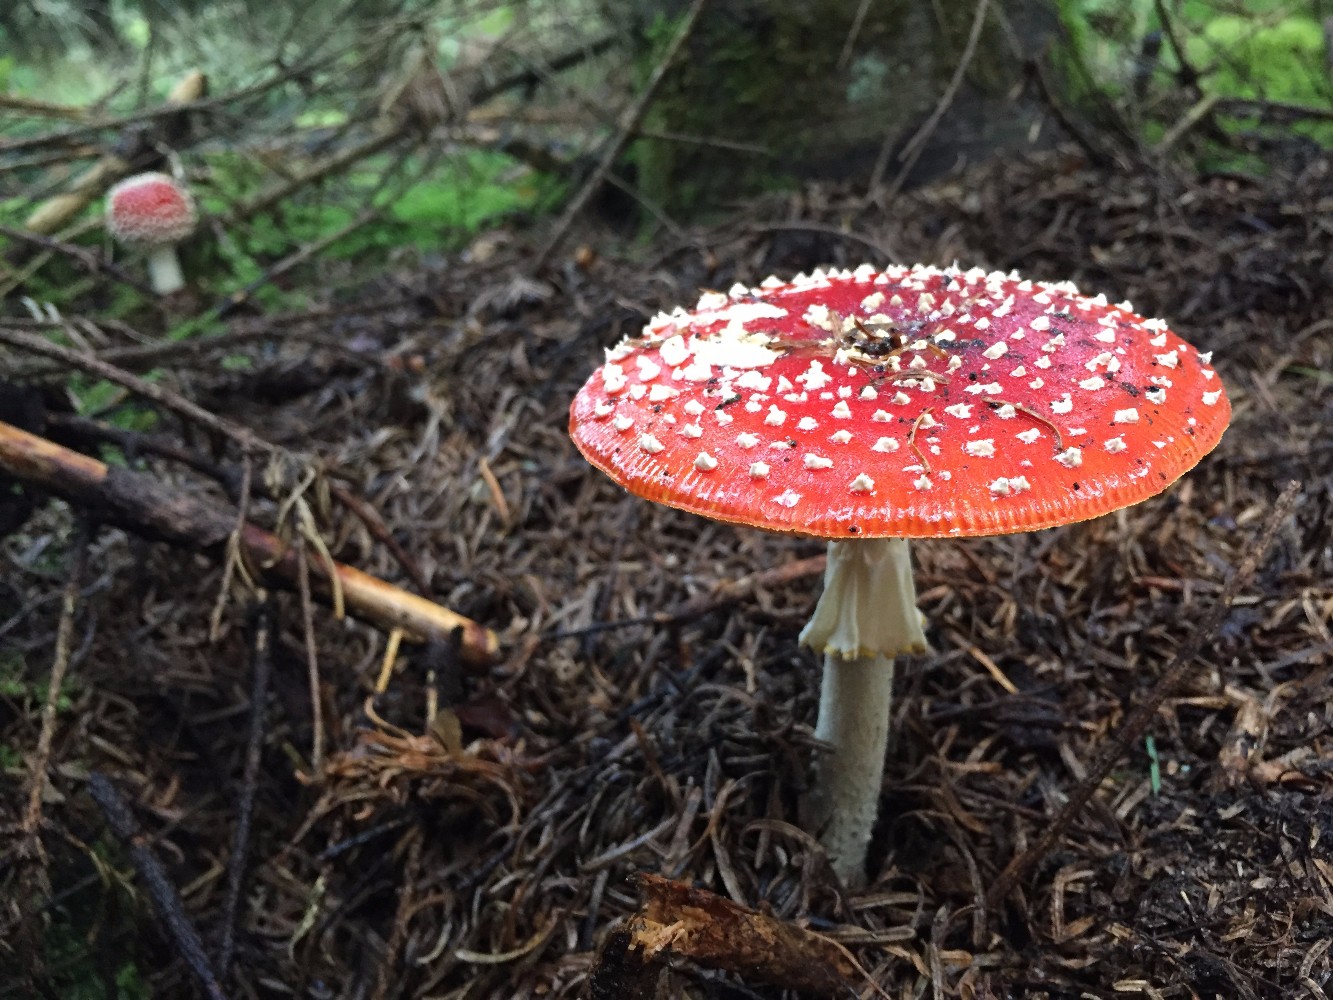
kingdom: Fungi
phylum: Basidiomycota
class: Agaricomycetes
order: Agaricales
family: Amanitaceae
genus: Amanita
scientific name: Amanita muscaria
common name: rød fluesvamp
